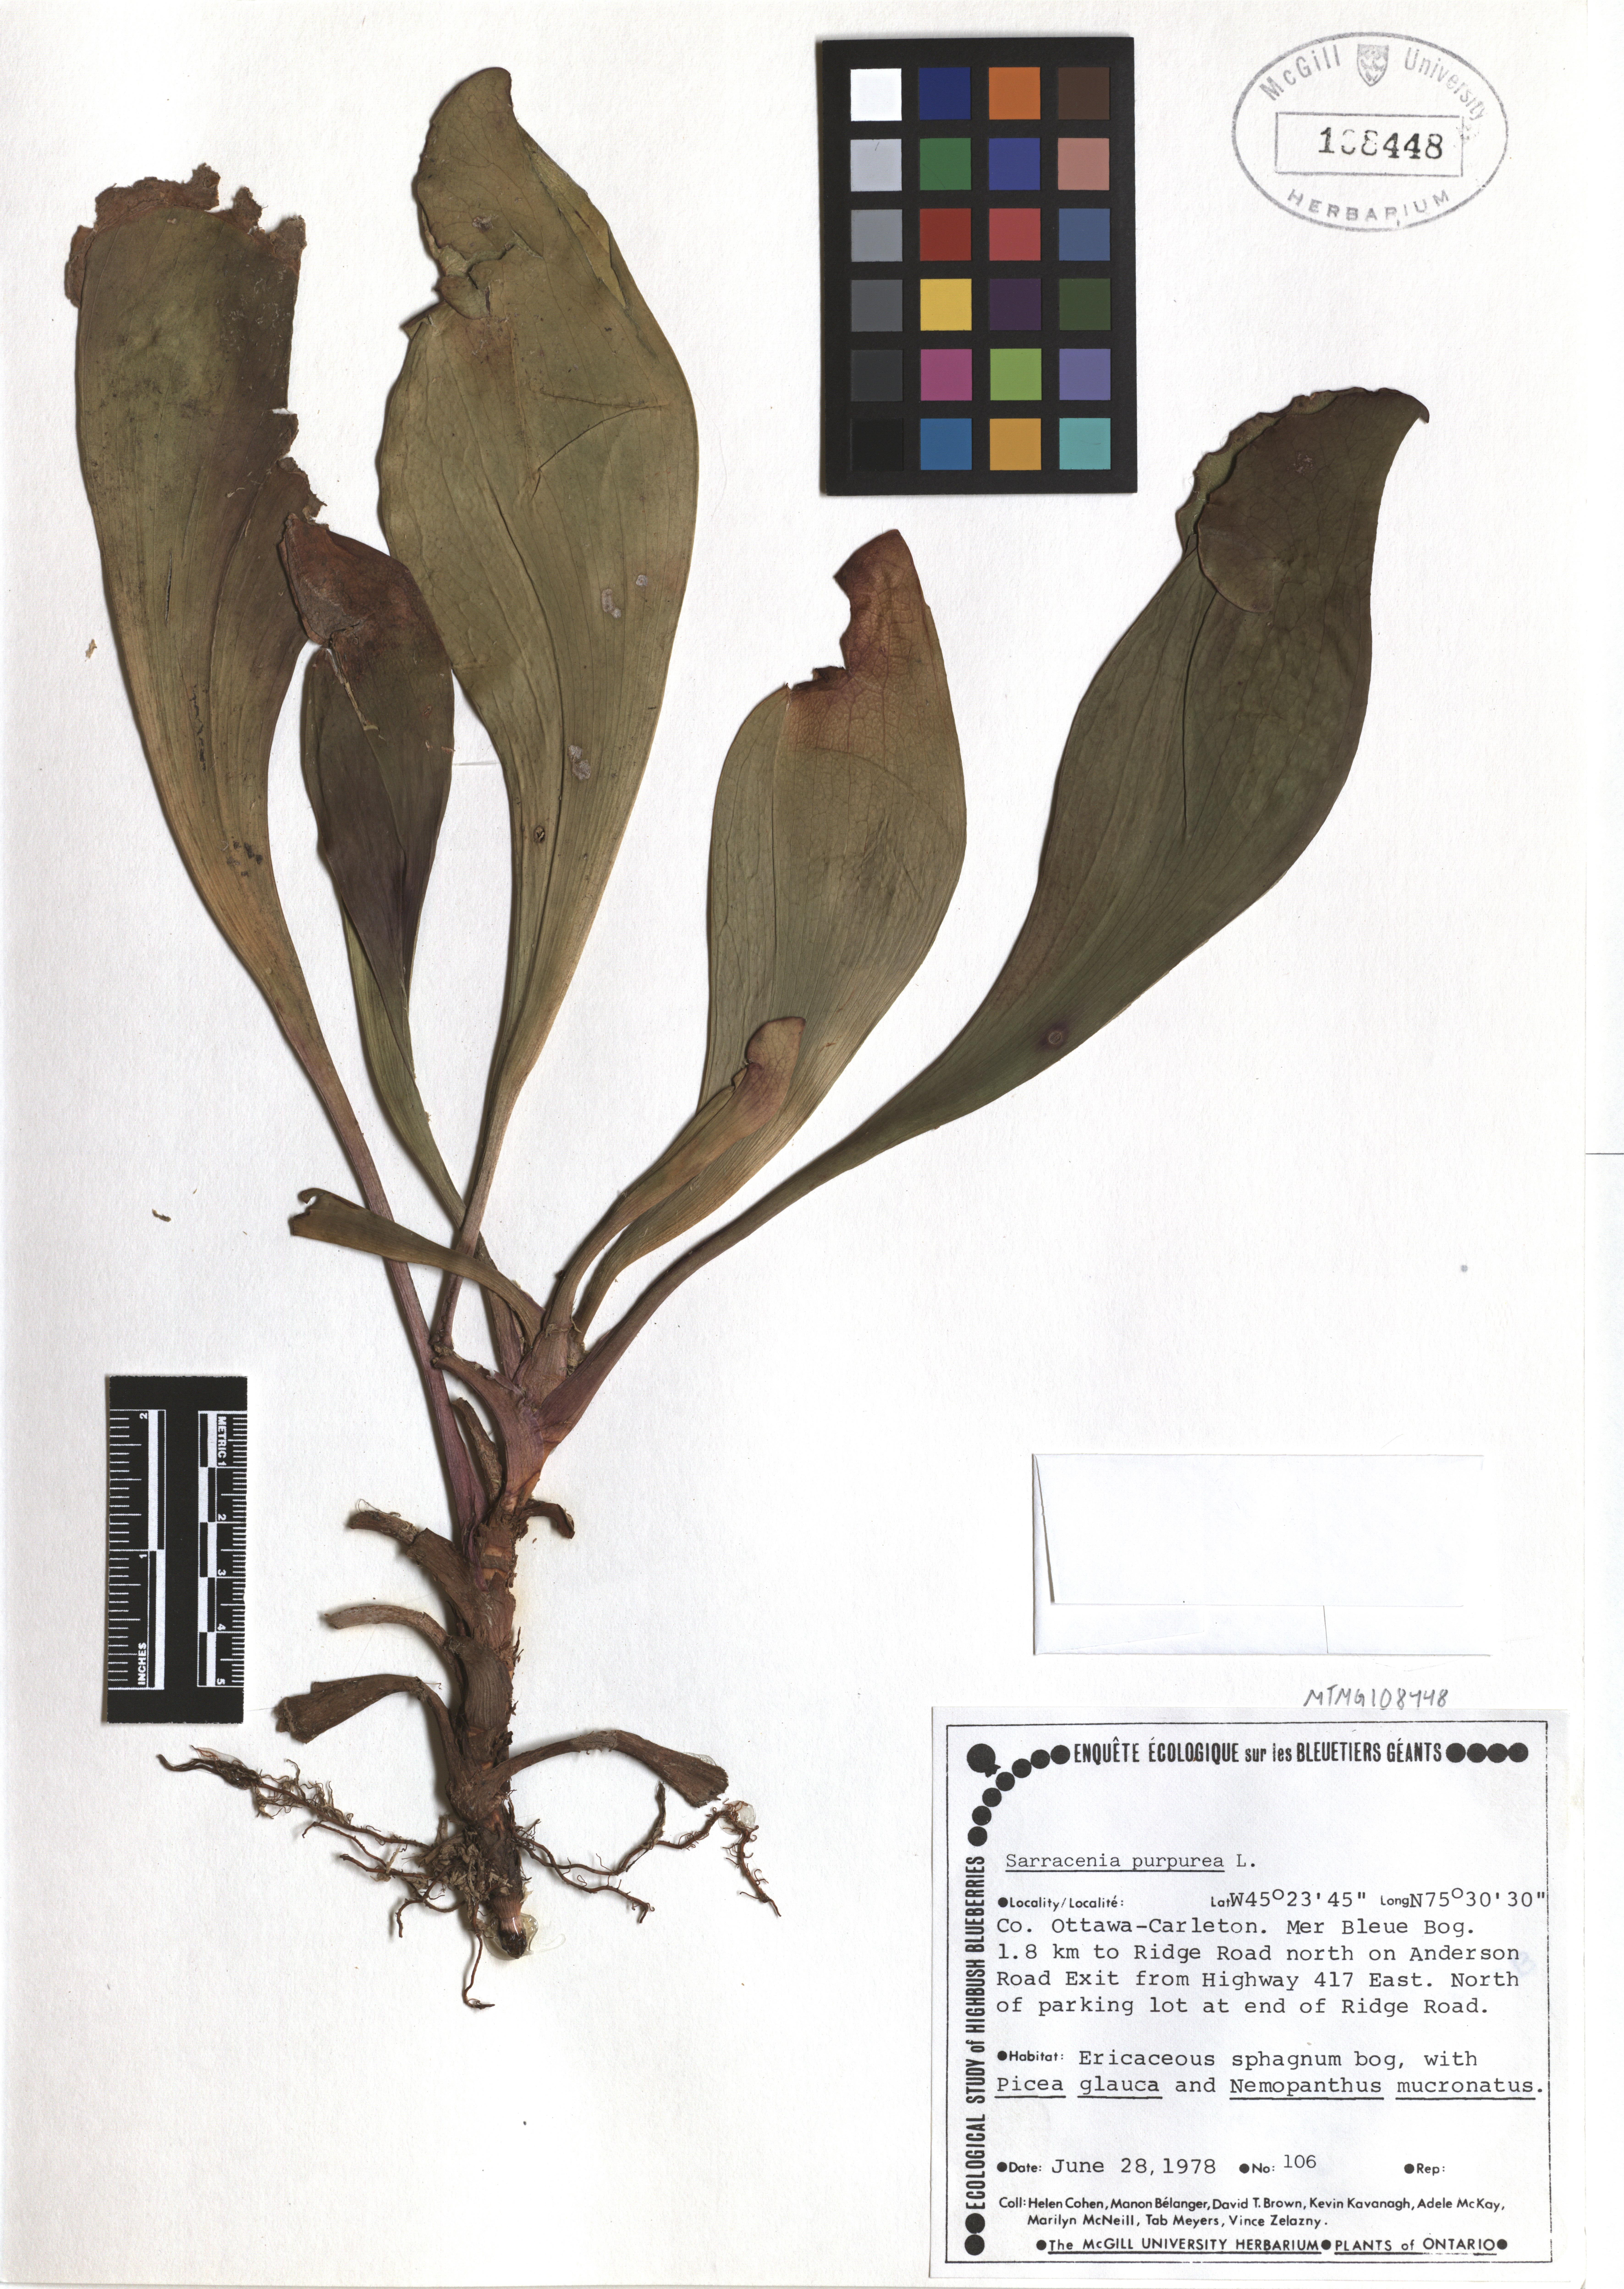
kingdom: Plantae
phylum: Tracheophyta
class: Magnoliopsida
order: Ericales
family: Sarraceniaceae
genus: Sarracenia
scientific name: Sarracenia purpurea
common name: Pitcherplant
